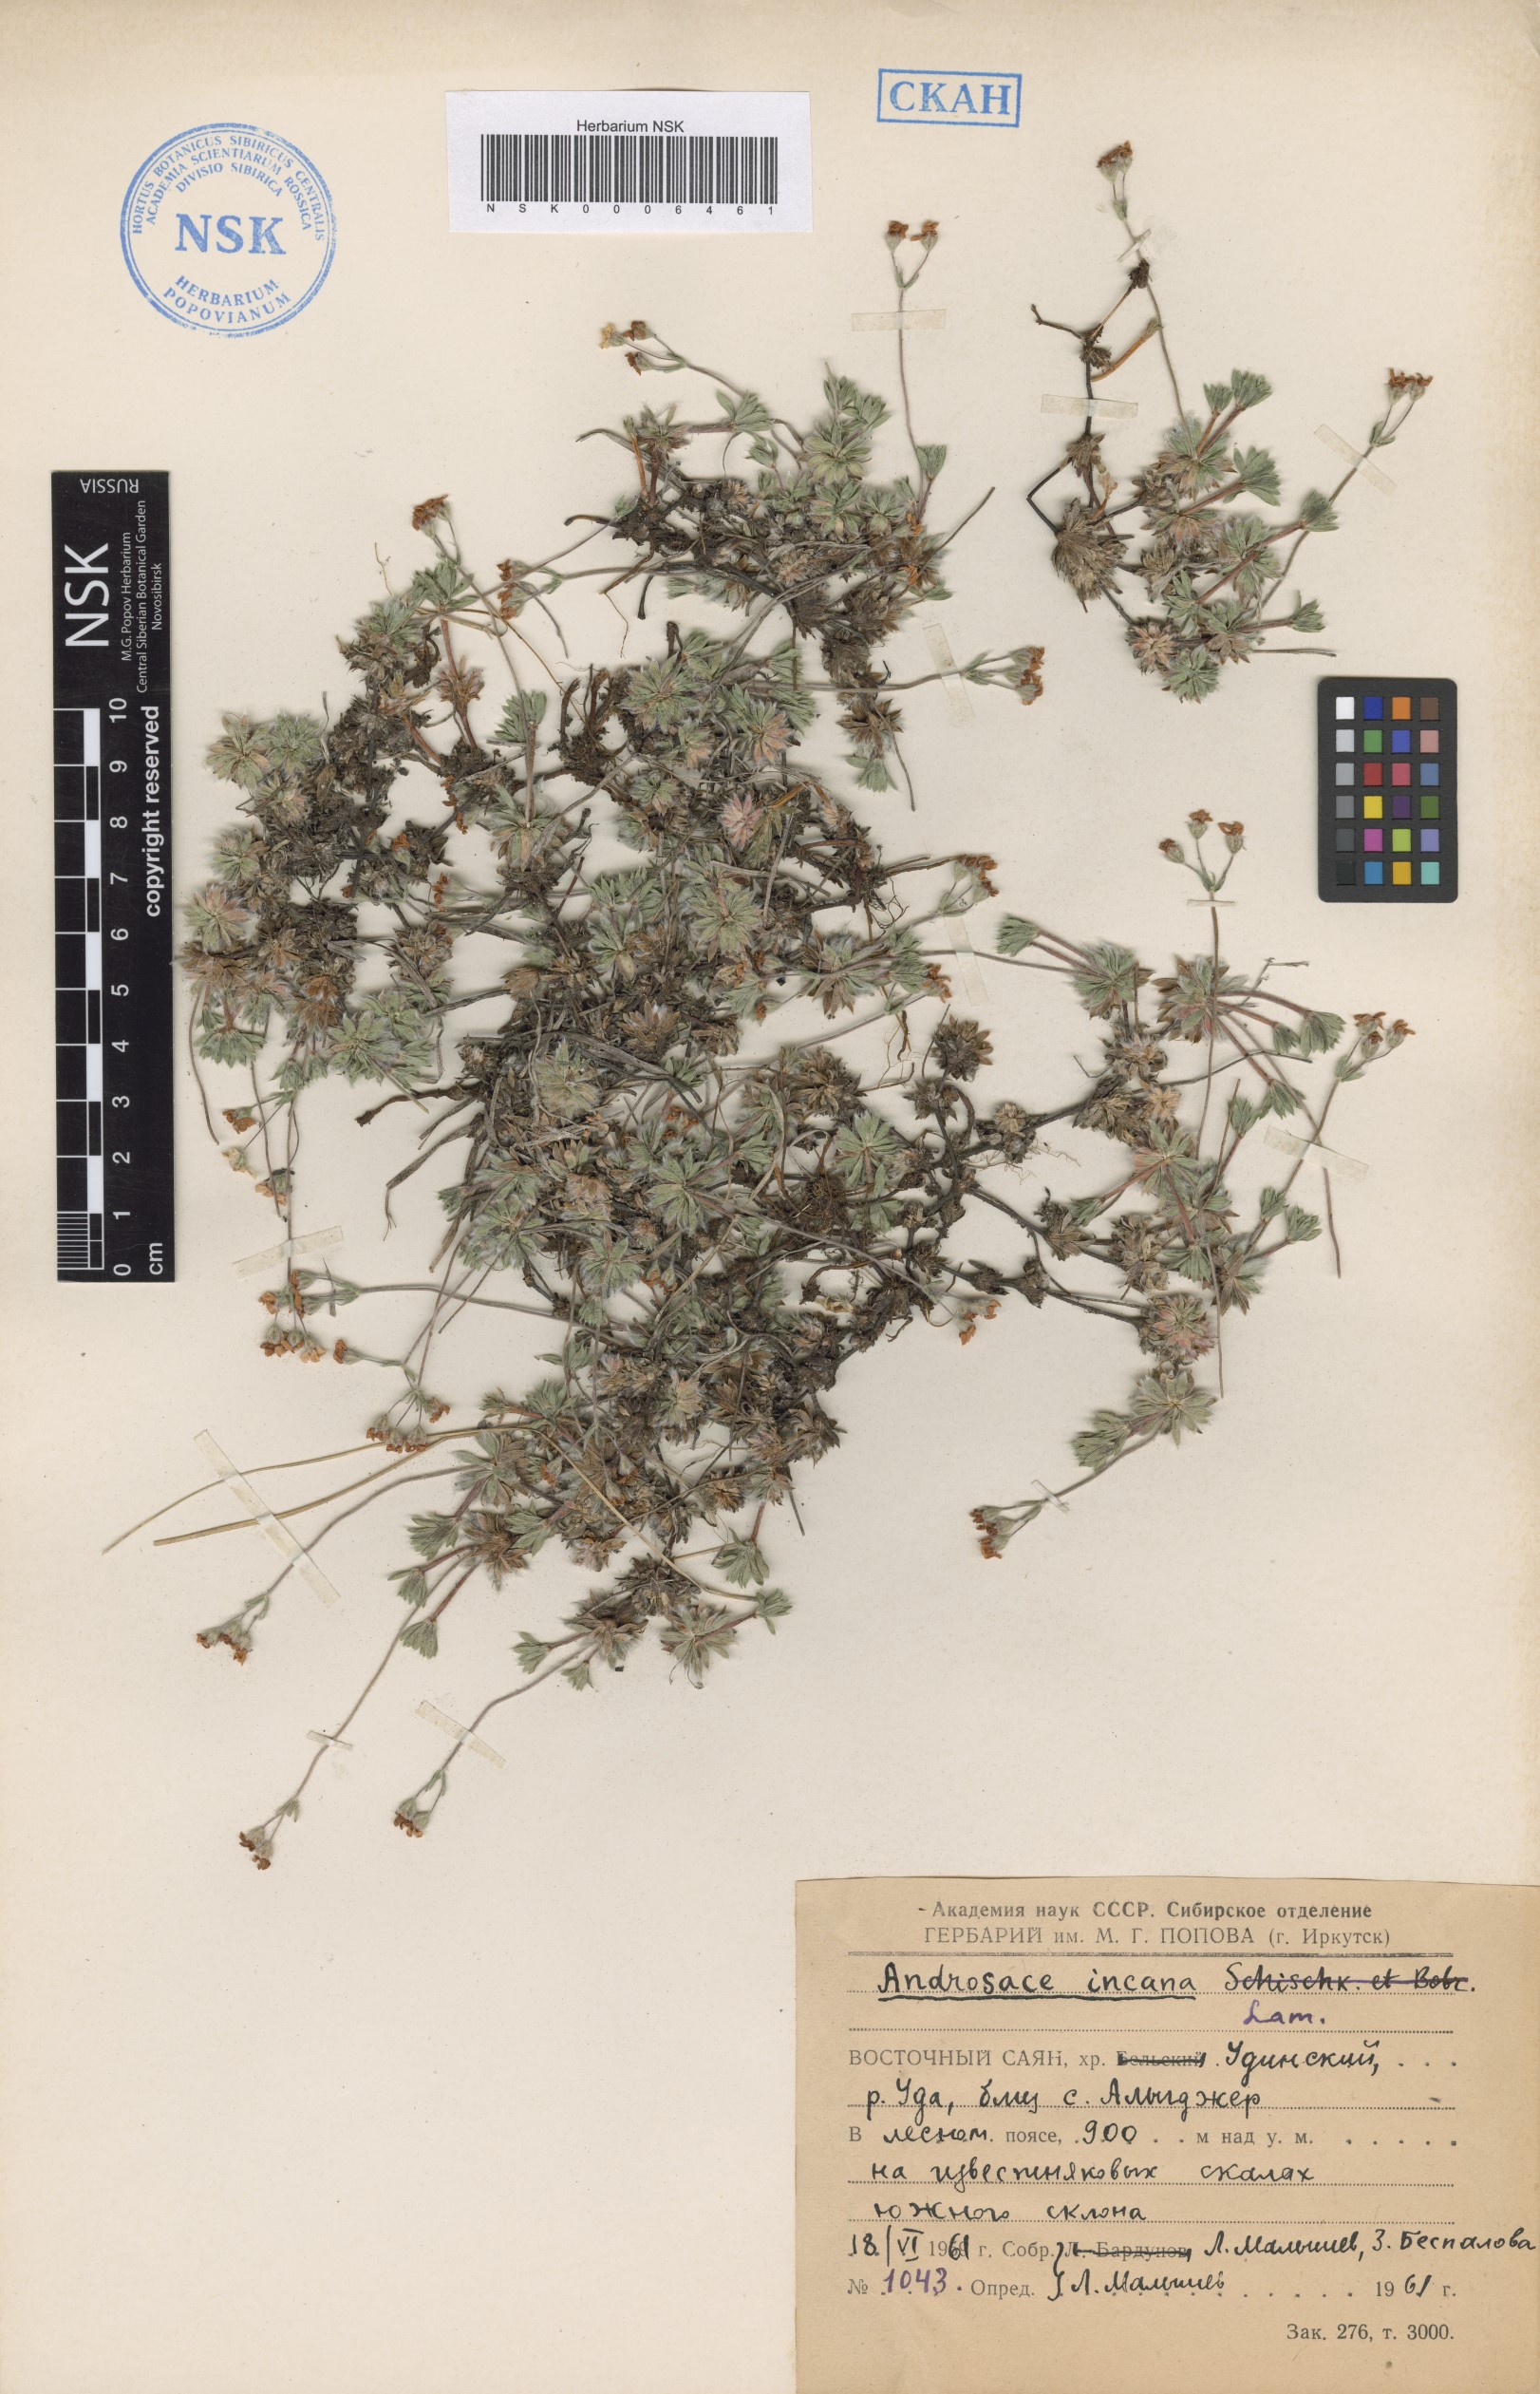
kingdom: Plantae
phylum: Tracheophyta
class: Magnoliopsida
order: Ericales
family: Primulaceae
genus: Androsace
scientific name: Androsace incana
